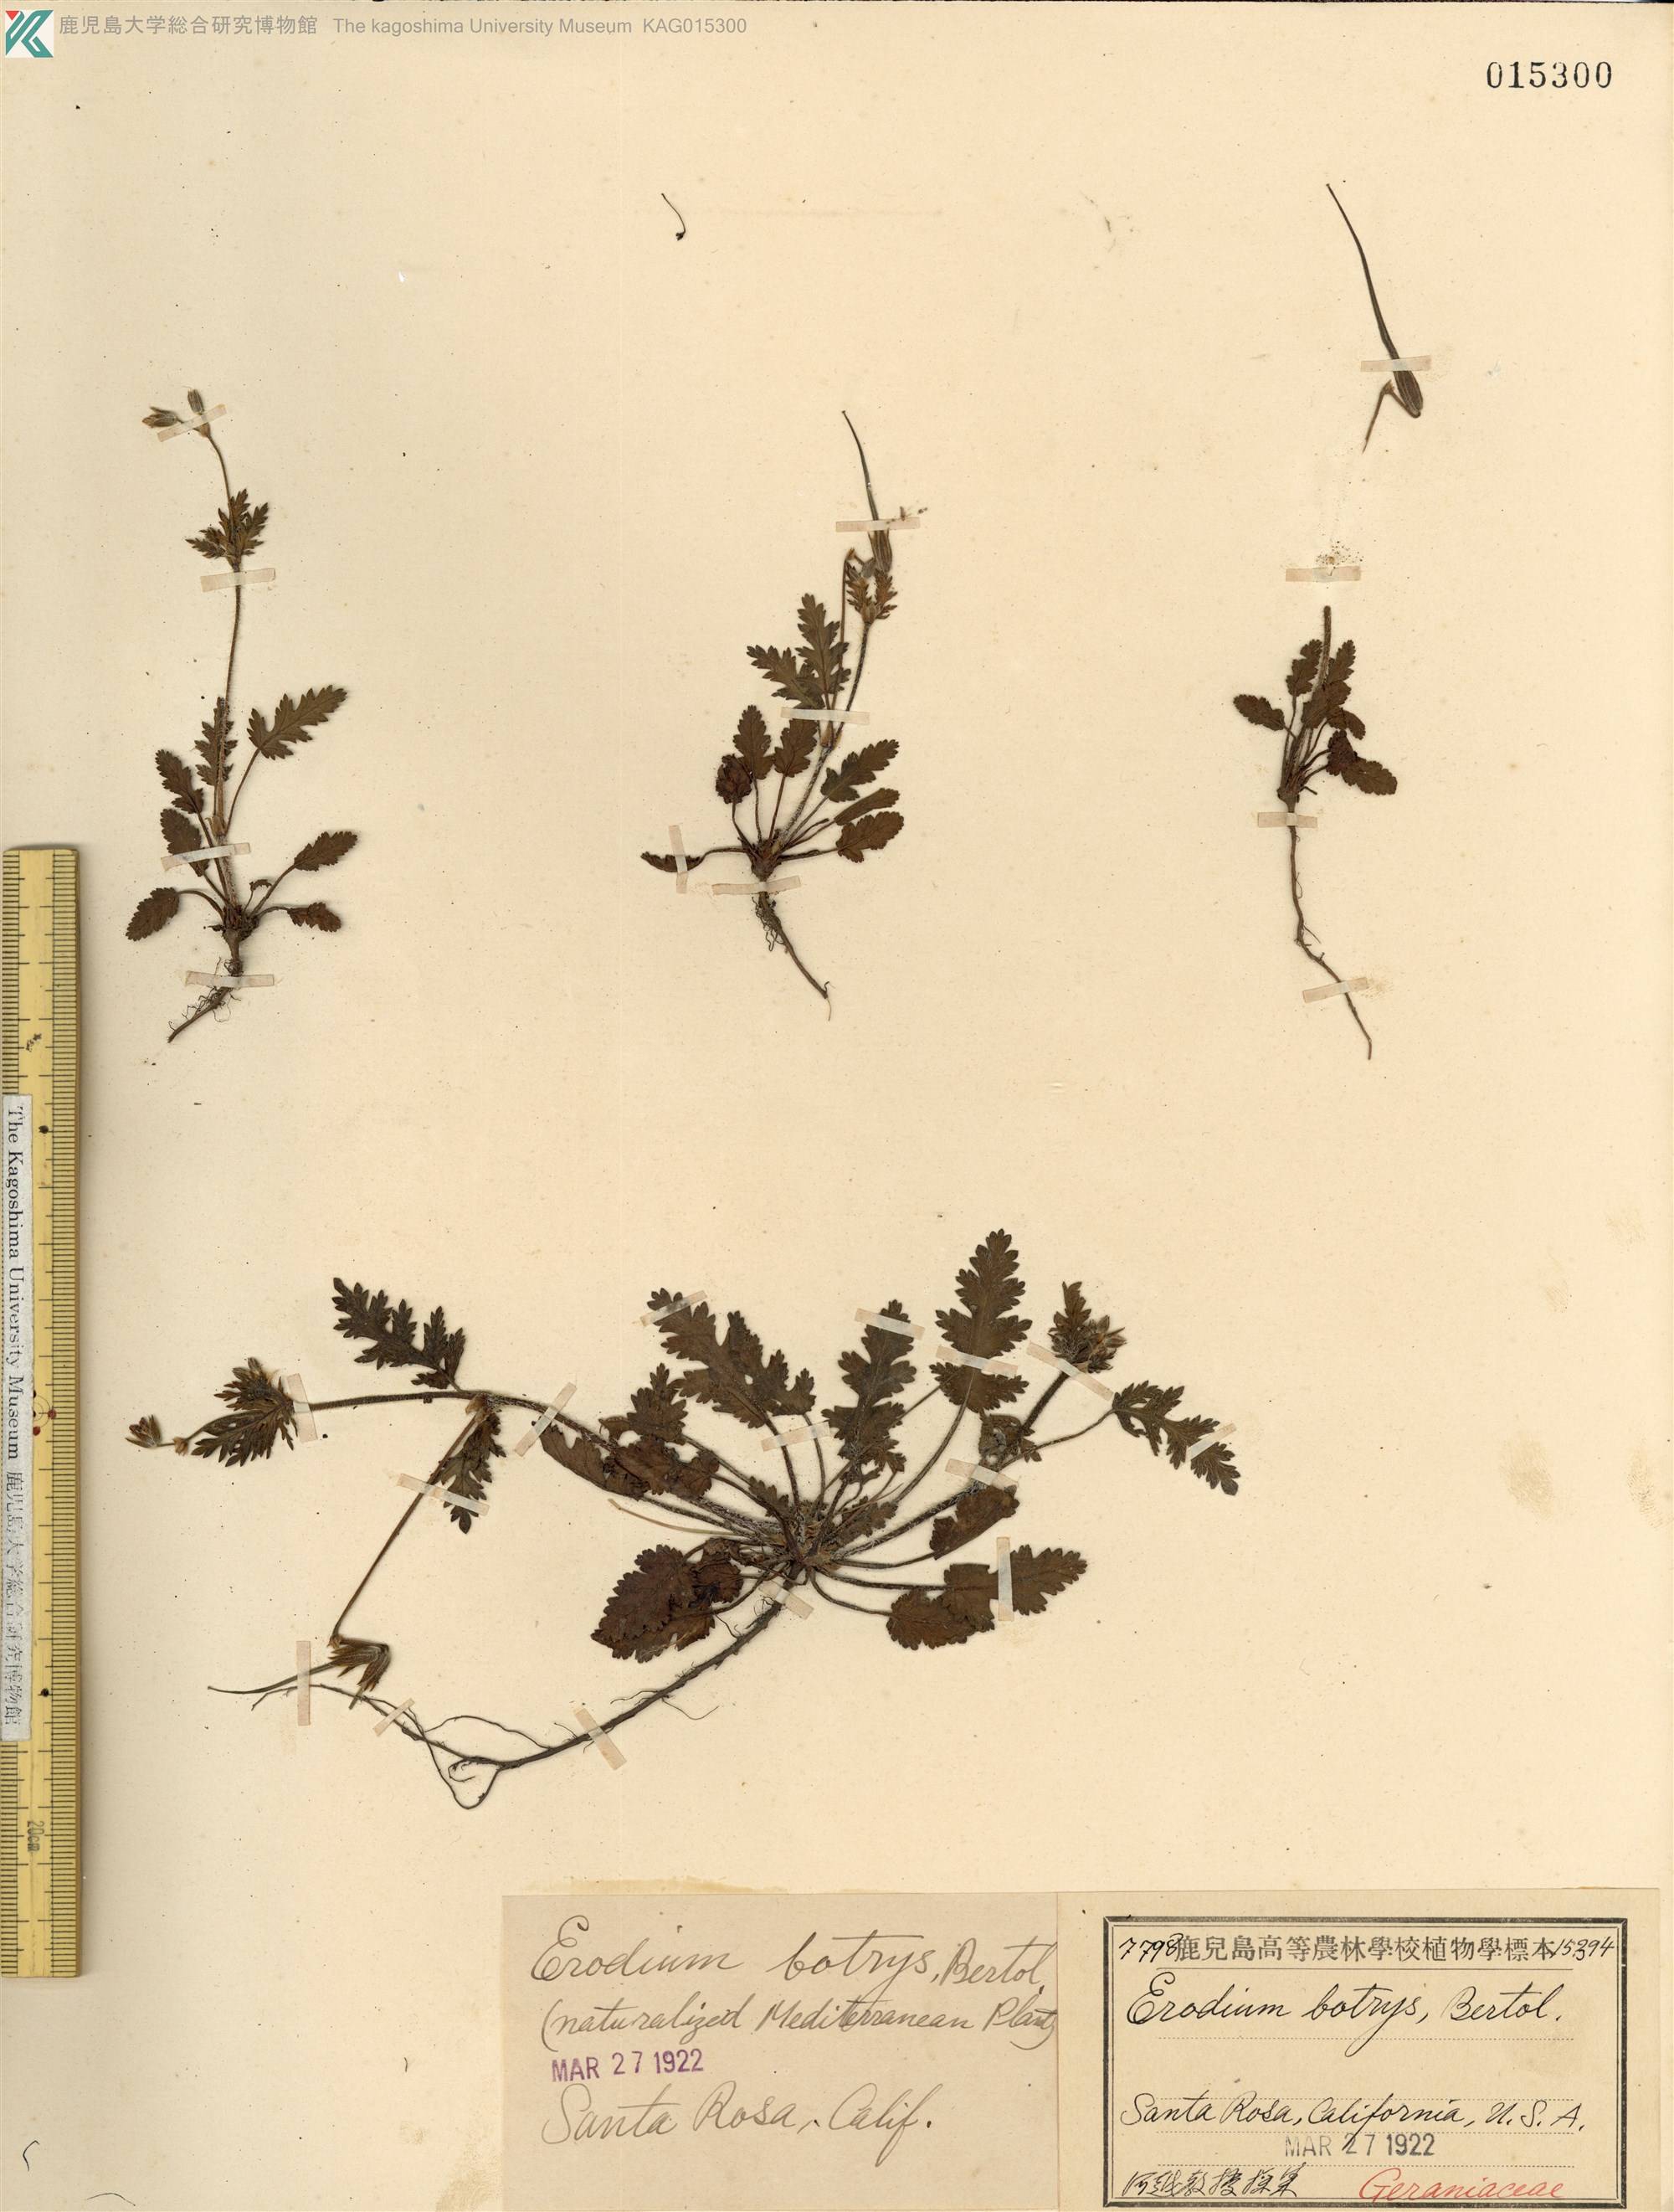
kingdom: Plantae
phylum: Tracheophyta
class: Magnoliopsida
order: Geraniales
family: Geraniaceae
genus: Erodium
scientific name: Erodium botrys
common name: Mediterranean stork's-bill
